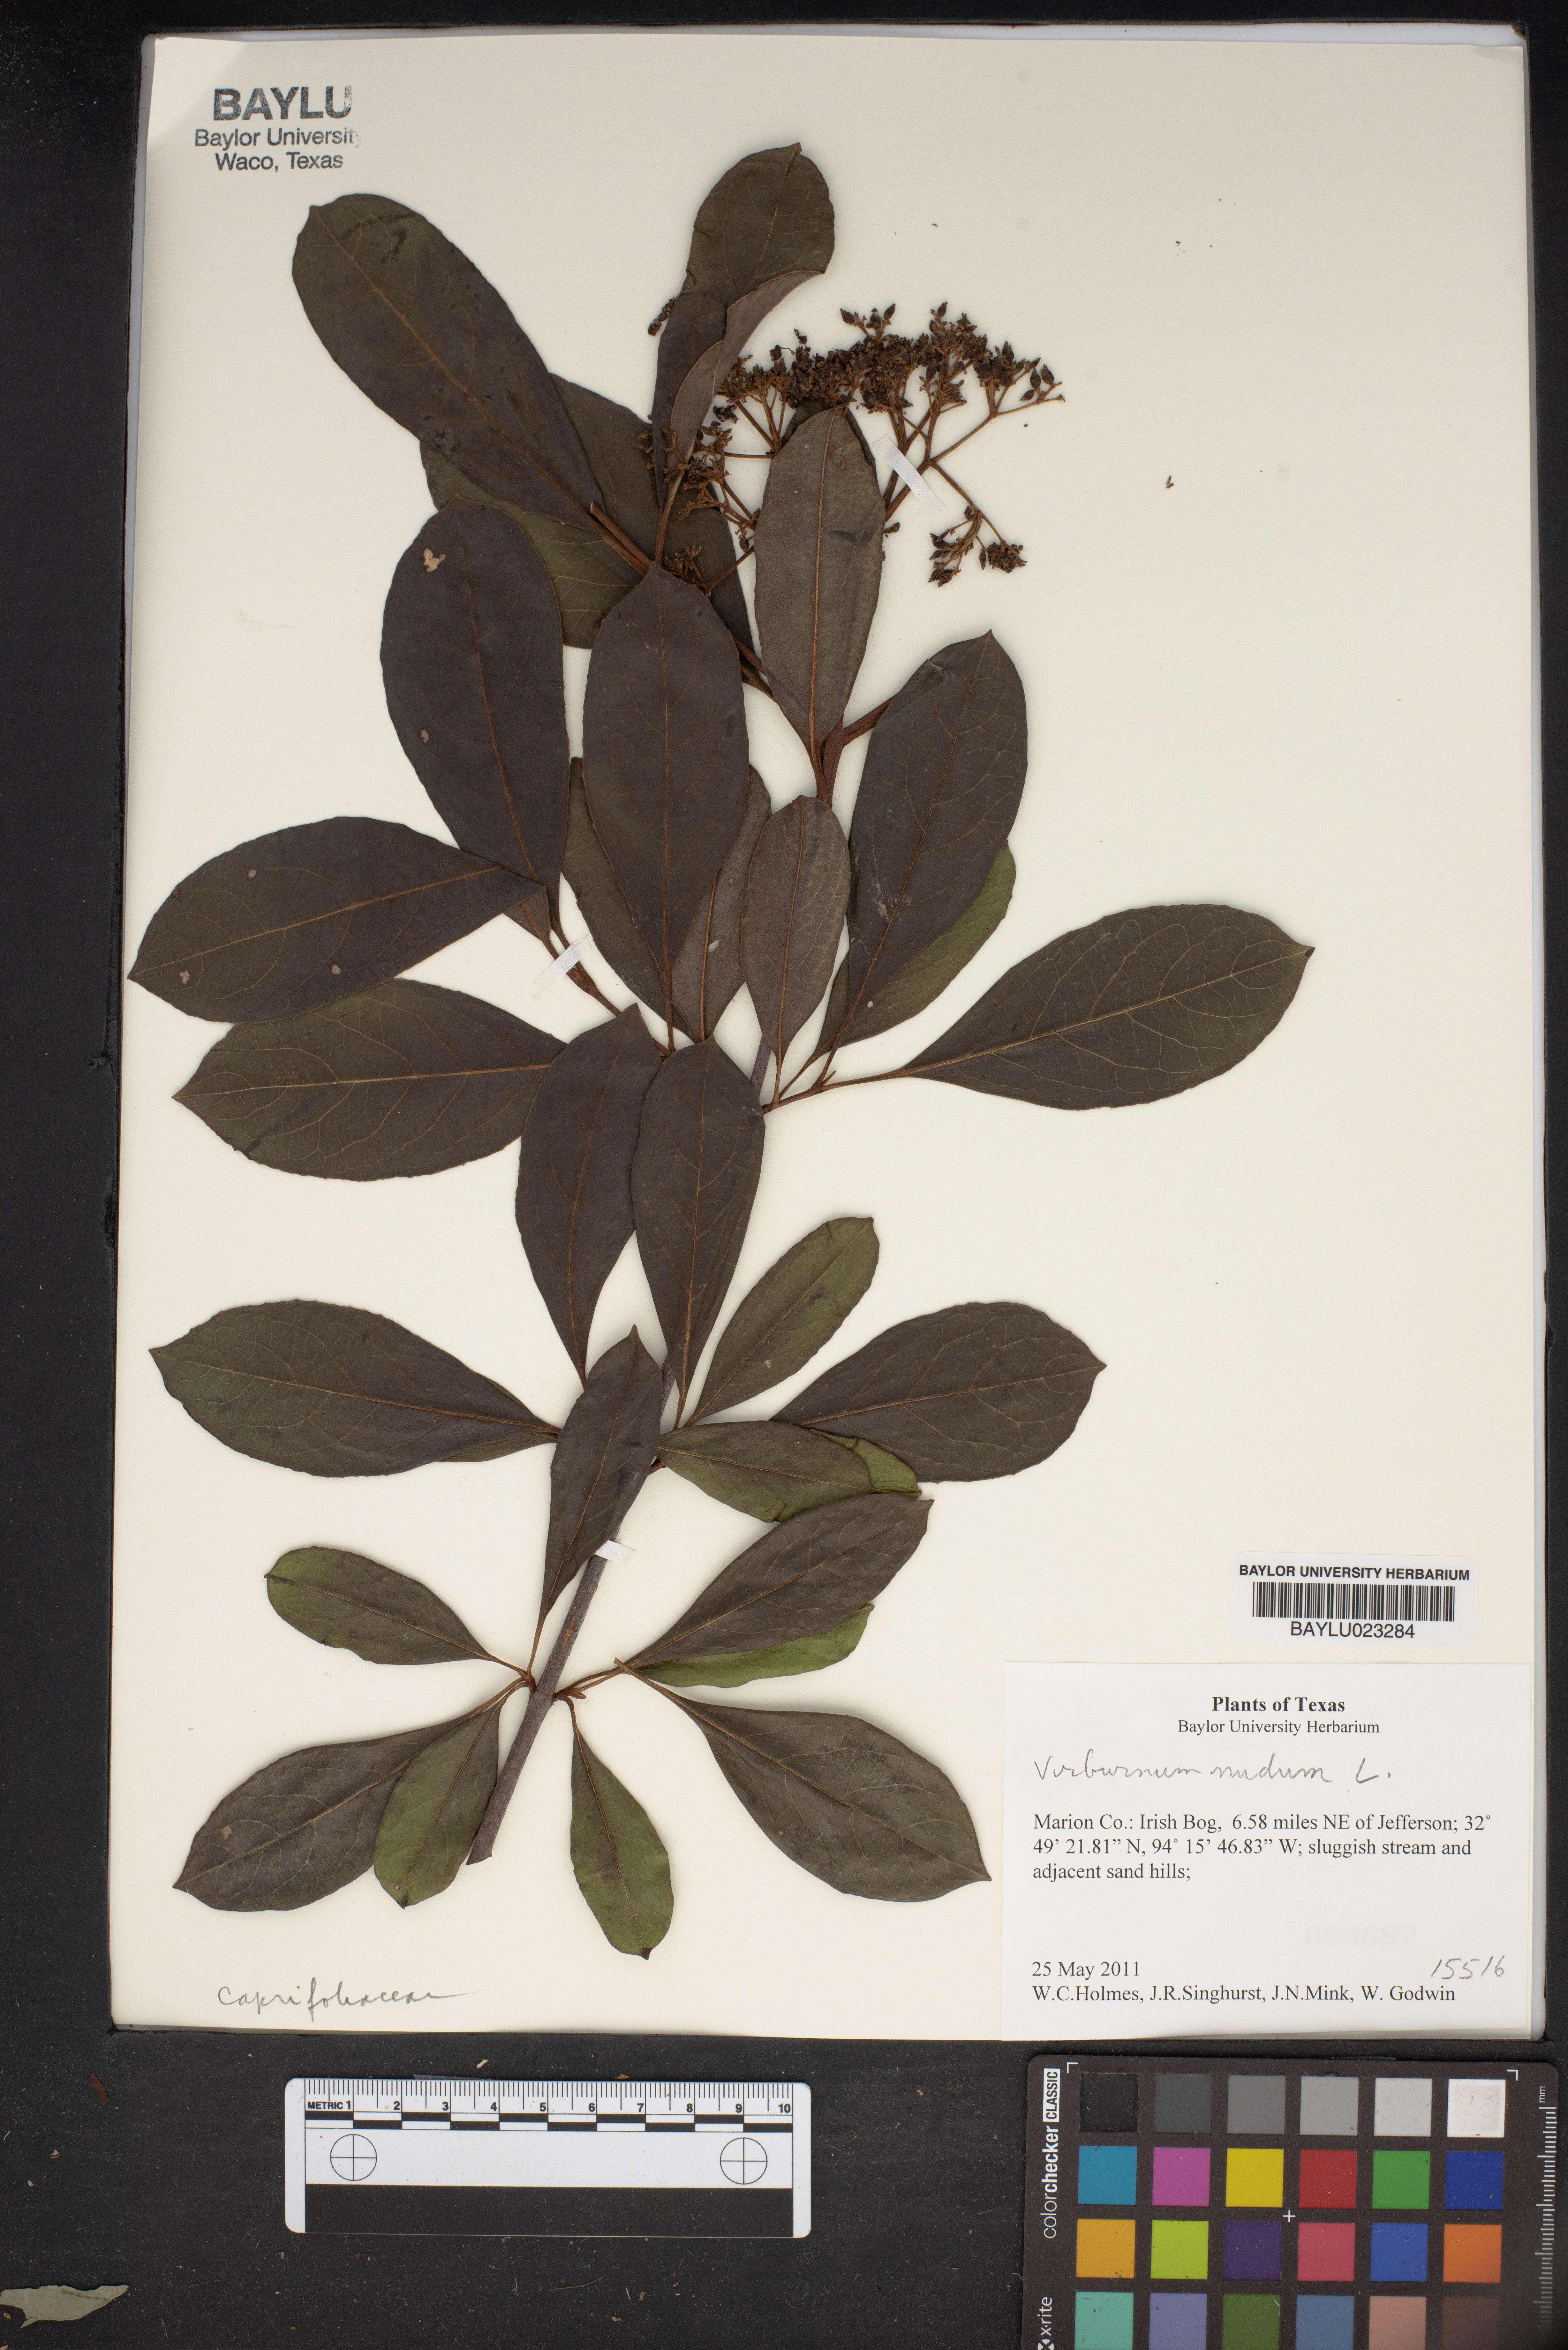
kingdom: Plantae
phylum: Tracheophyta
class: Magnoliopsida
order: Dipsacales
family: Viburnaceae
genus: Viburnum
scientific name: Viburnum nudum
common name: Possum haw
